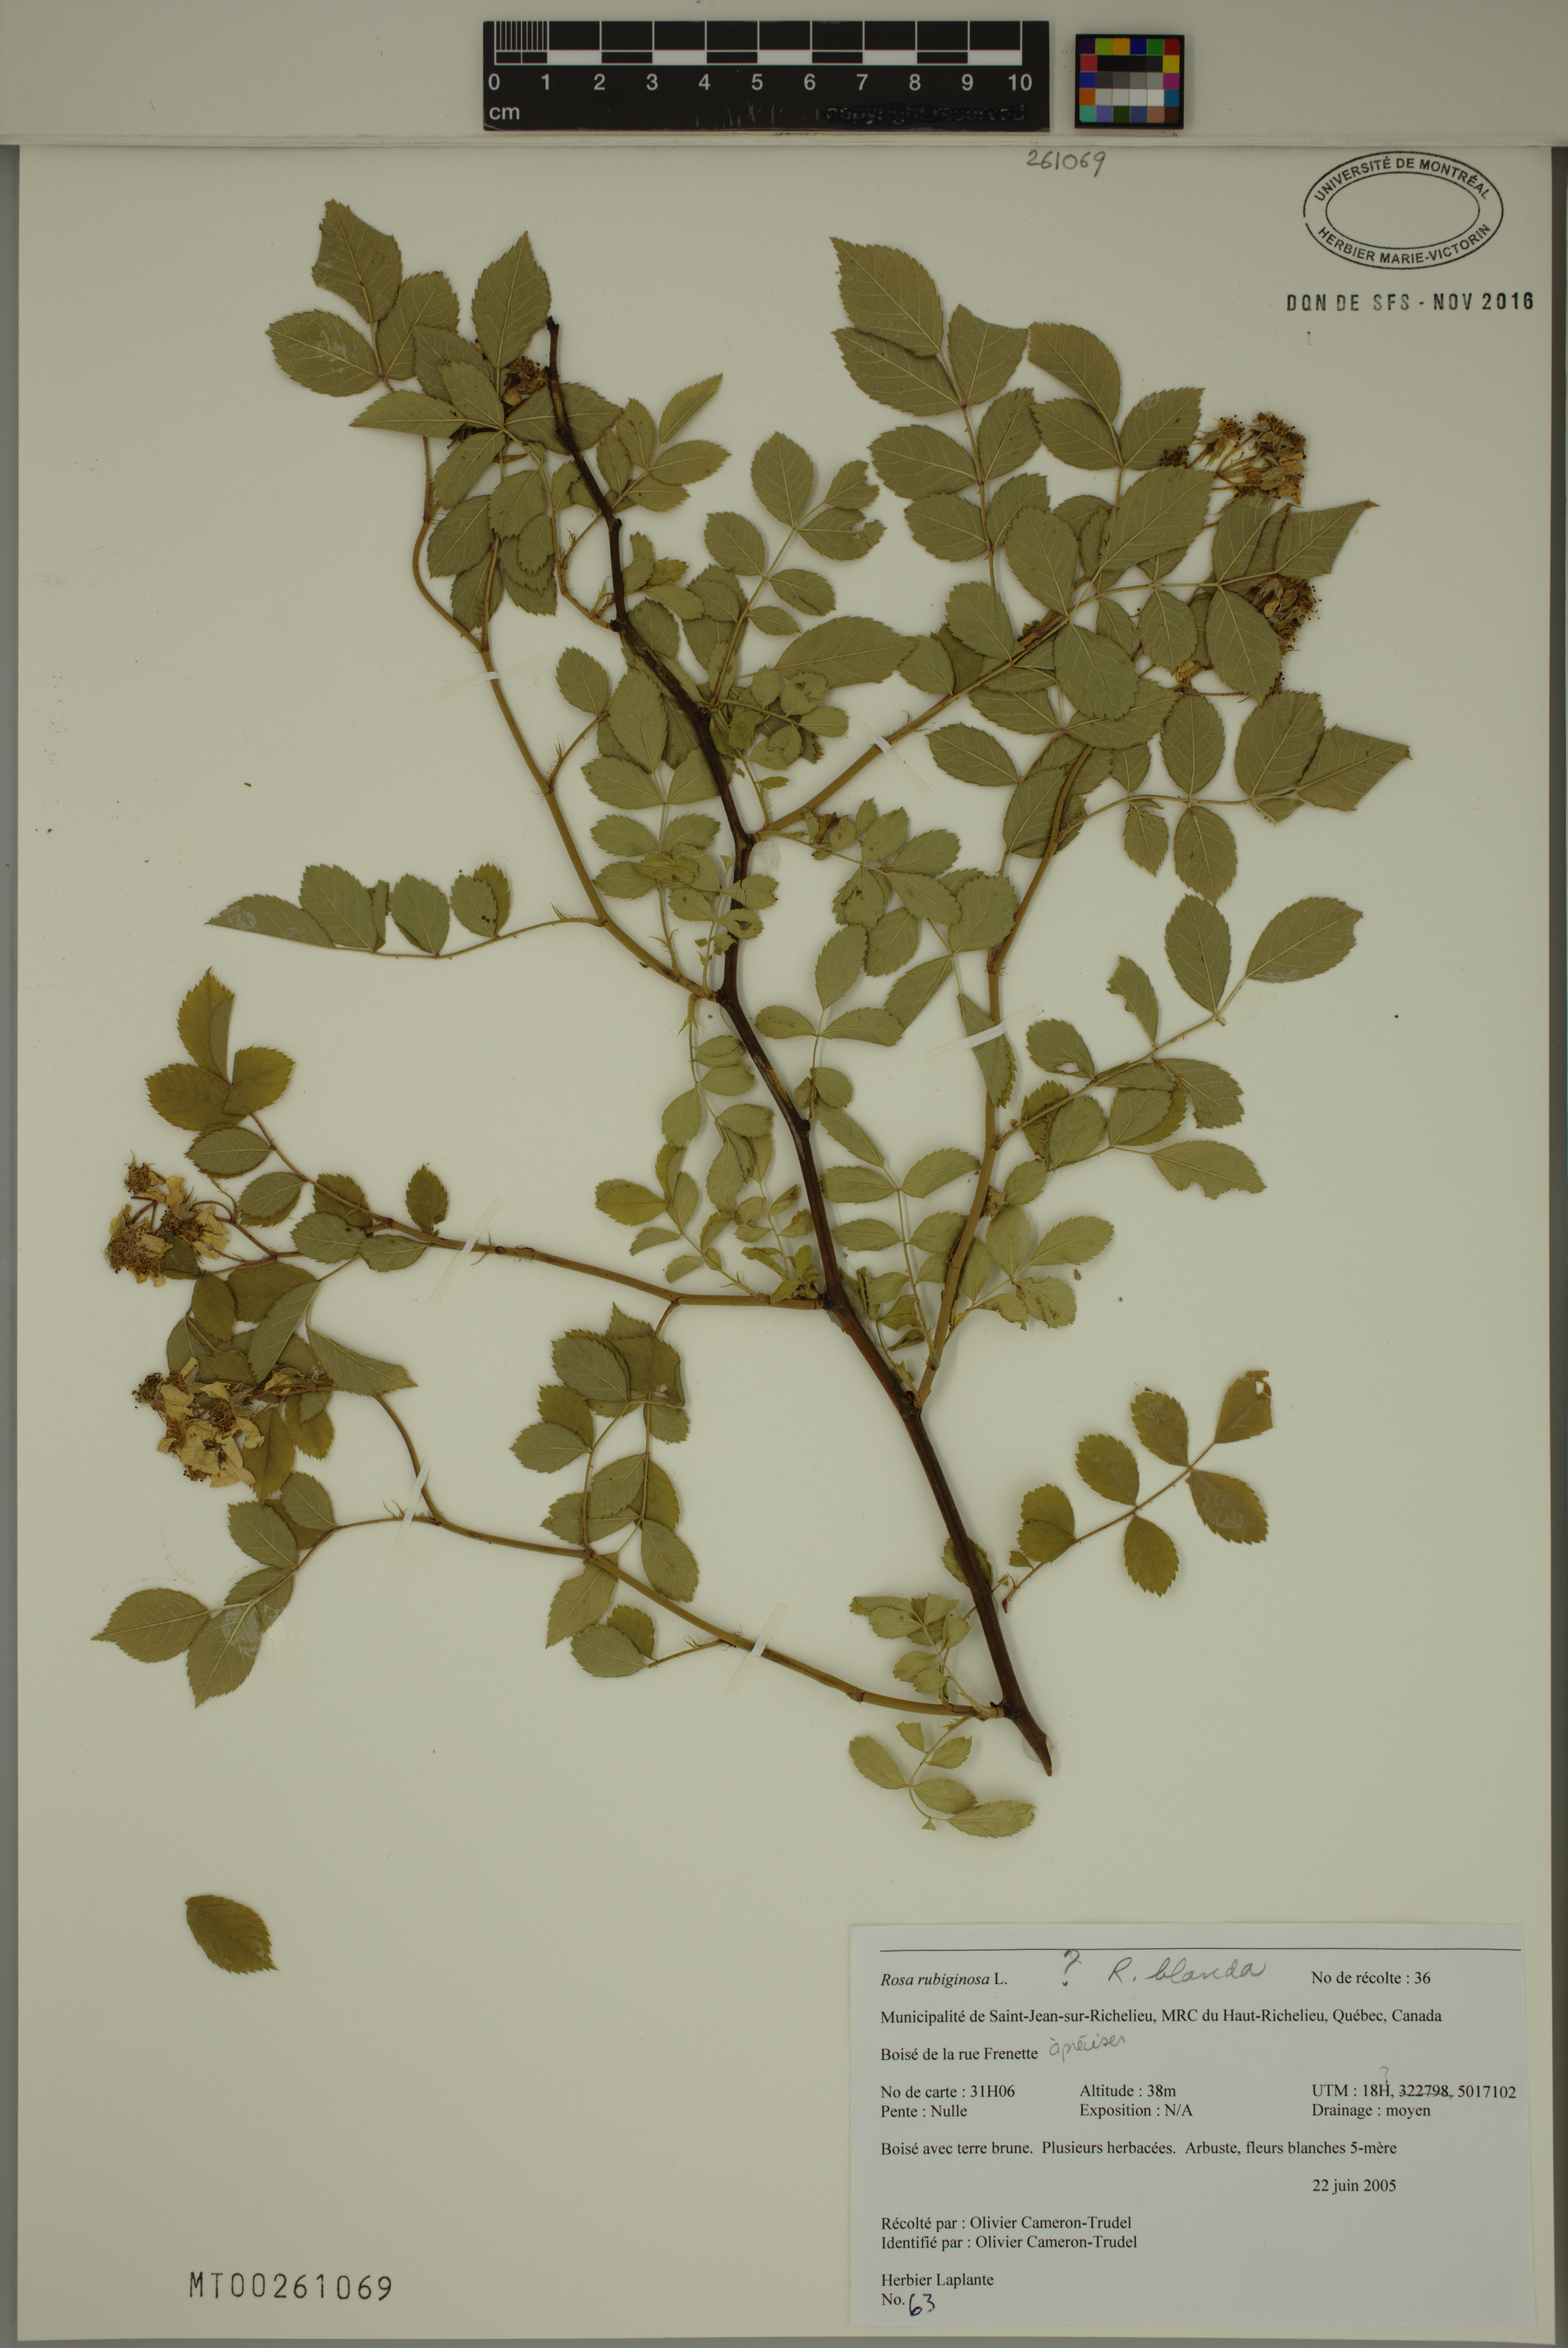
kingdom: Plantae
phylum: Tracheophyta
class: Magnoliopsida
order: Rosales
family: Rosaceae
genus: Rosa
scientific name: Rosa blanda
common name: Smooth rose
